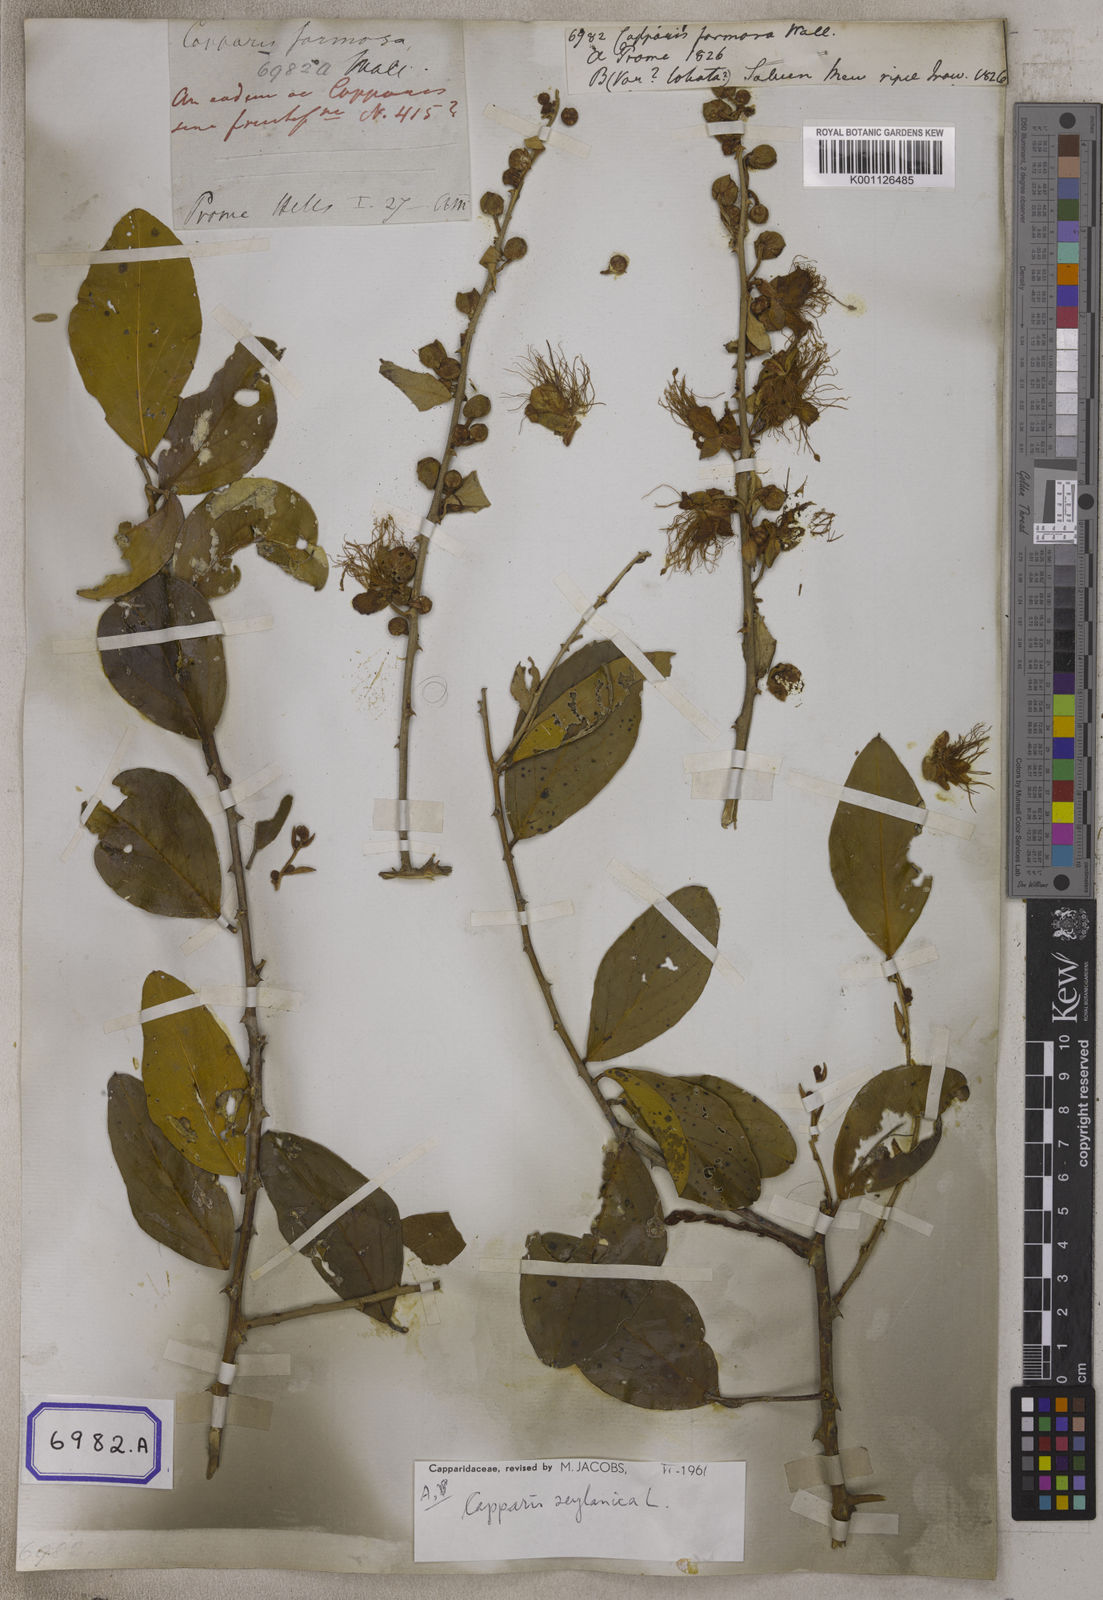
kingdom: Plantae
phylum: Tracheophyta
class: Magnoliopsida
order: Brassicales
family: Capparaceae
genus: Capparis
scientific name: Capparis
